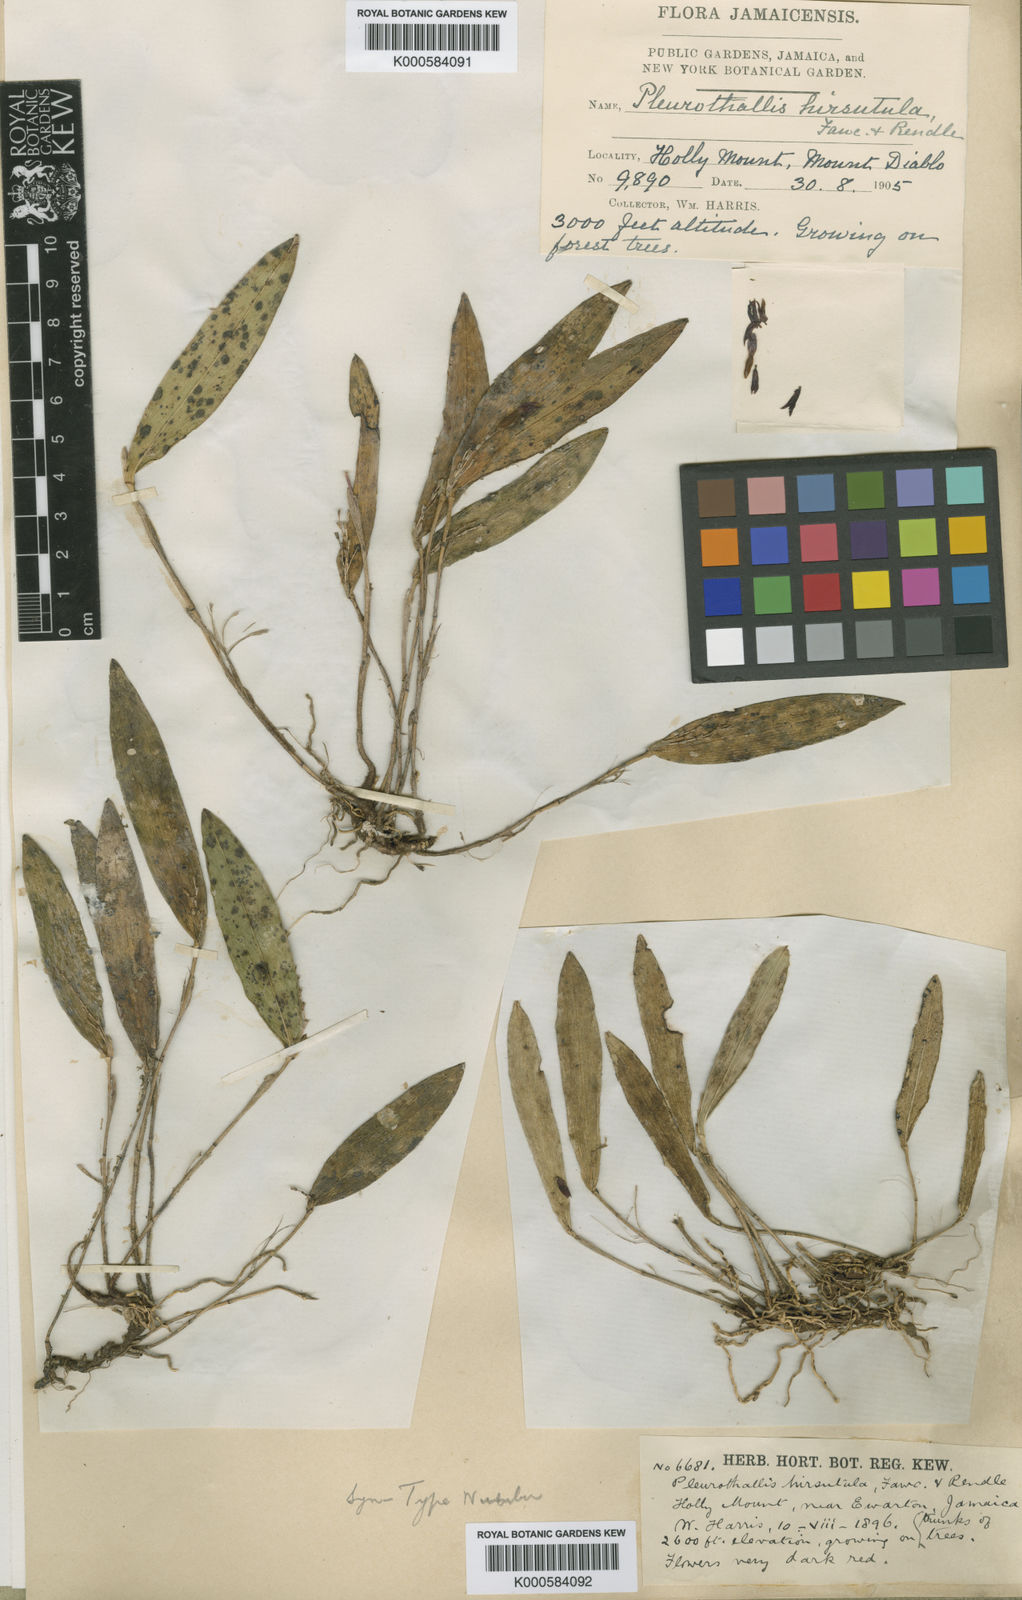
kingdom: Plantae
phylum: Tracheophyta
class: Liliopsida
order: Asparagales
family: Orchidaceae
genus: Acianthera
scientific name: Acianthera hirsutula
